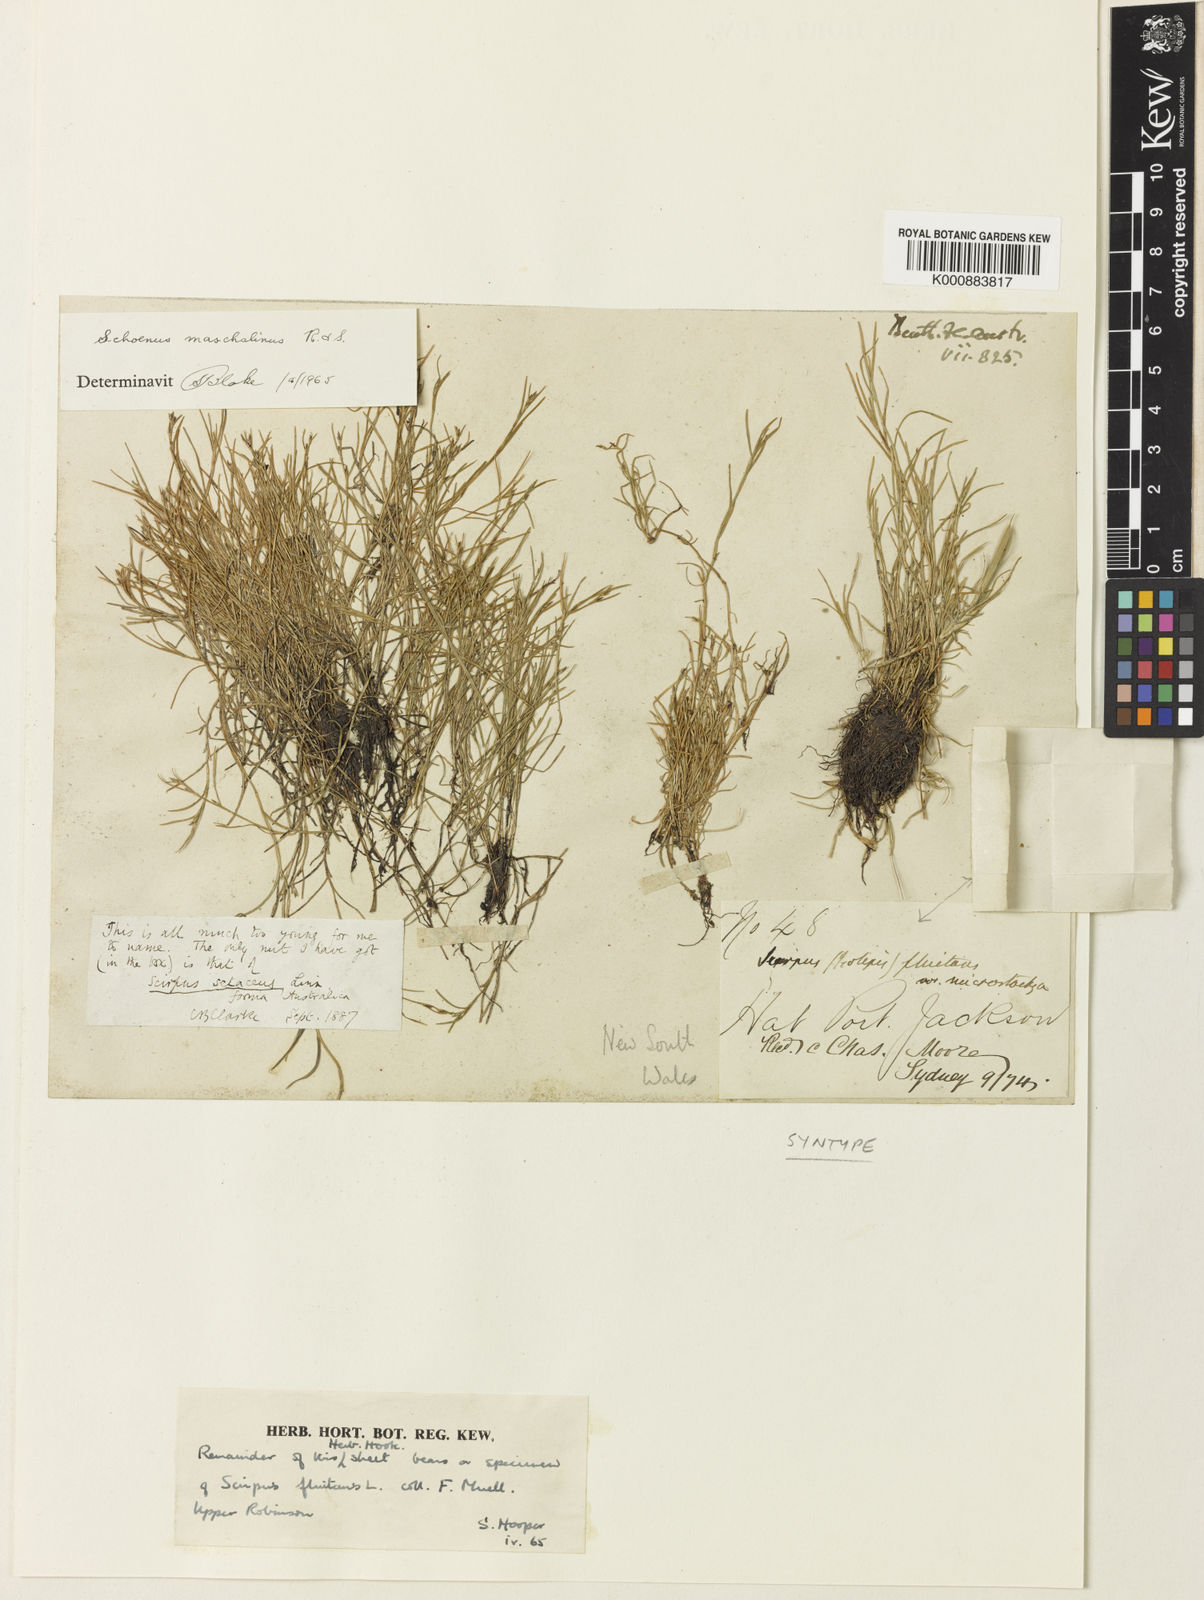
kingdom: Plantae
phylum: Tracheophyta
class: Liliopsida
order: Poales
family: Cyperaceae
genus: Schoenus
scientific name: Schoenus maschalinus
